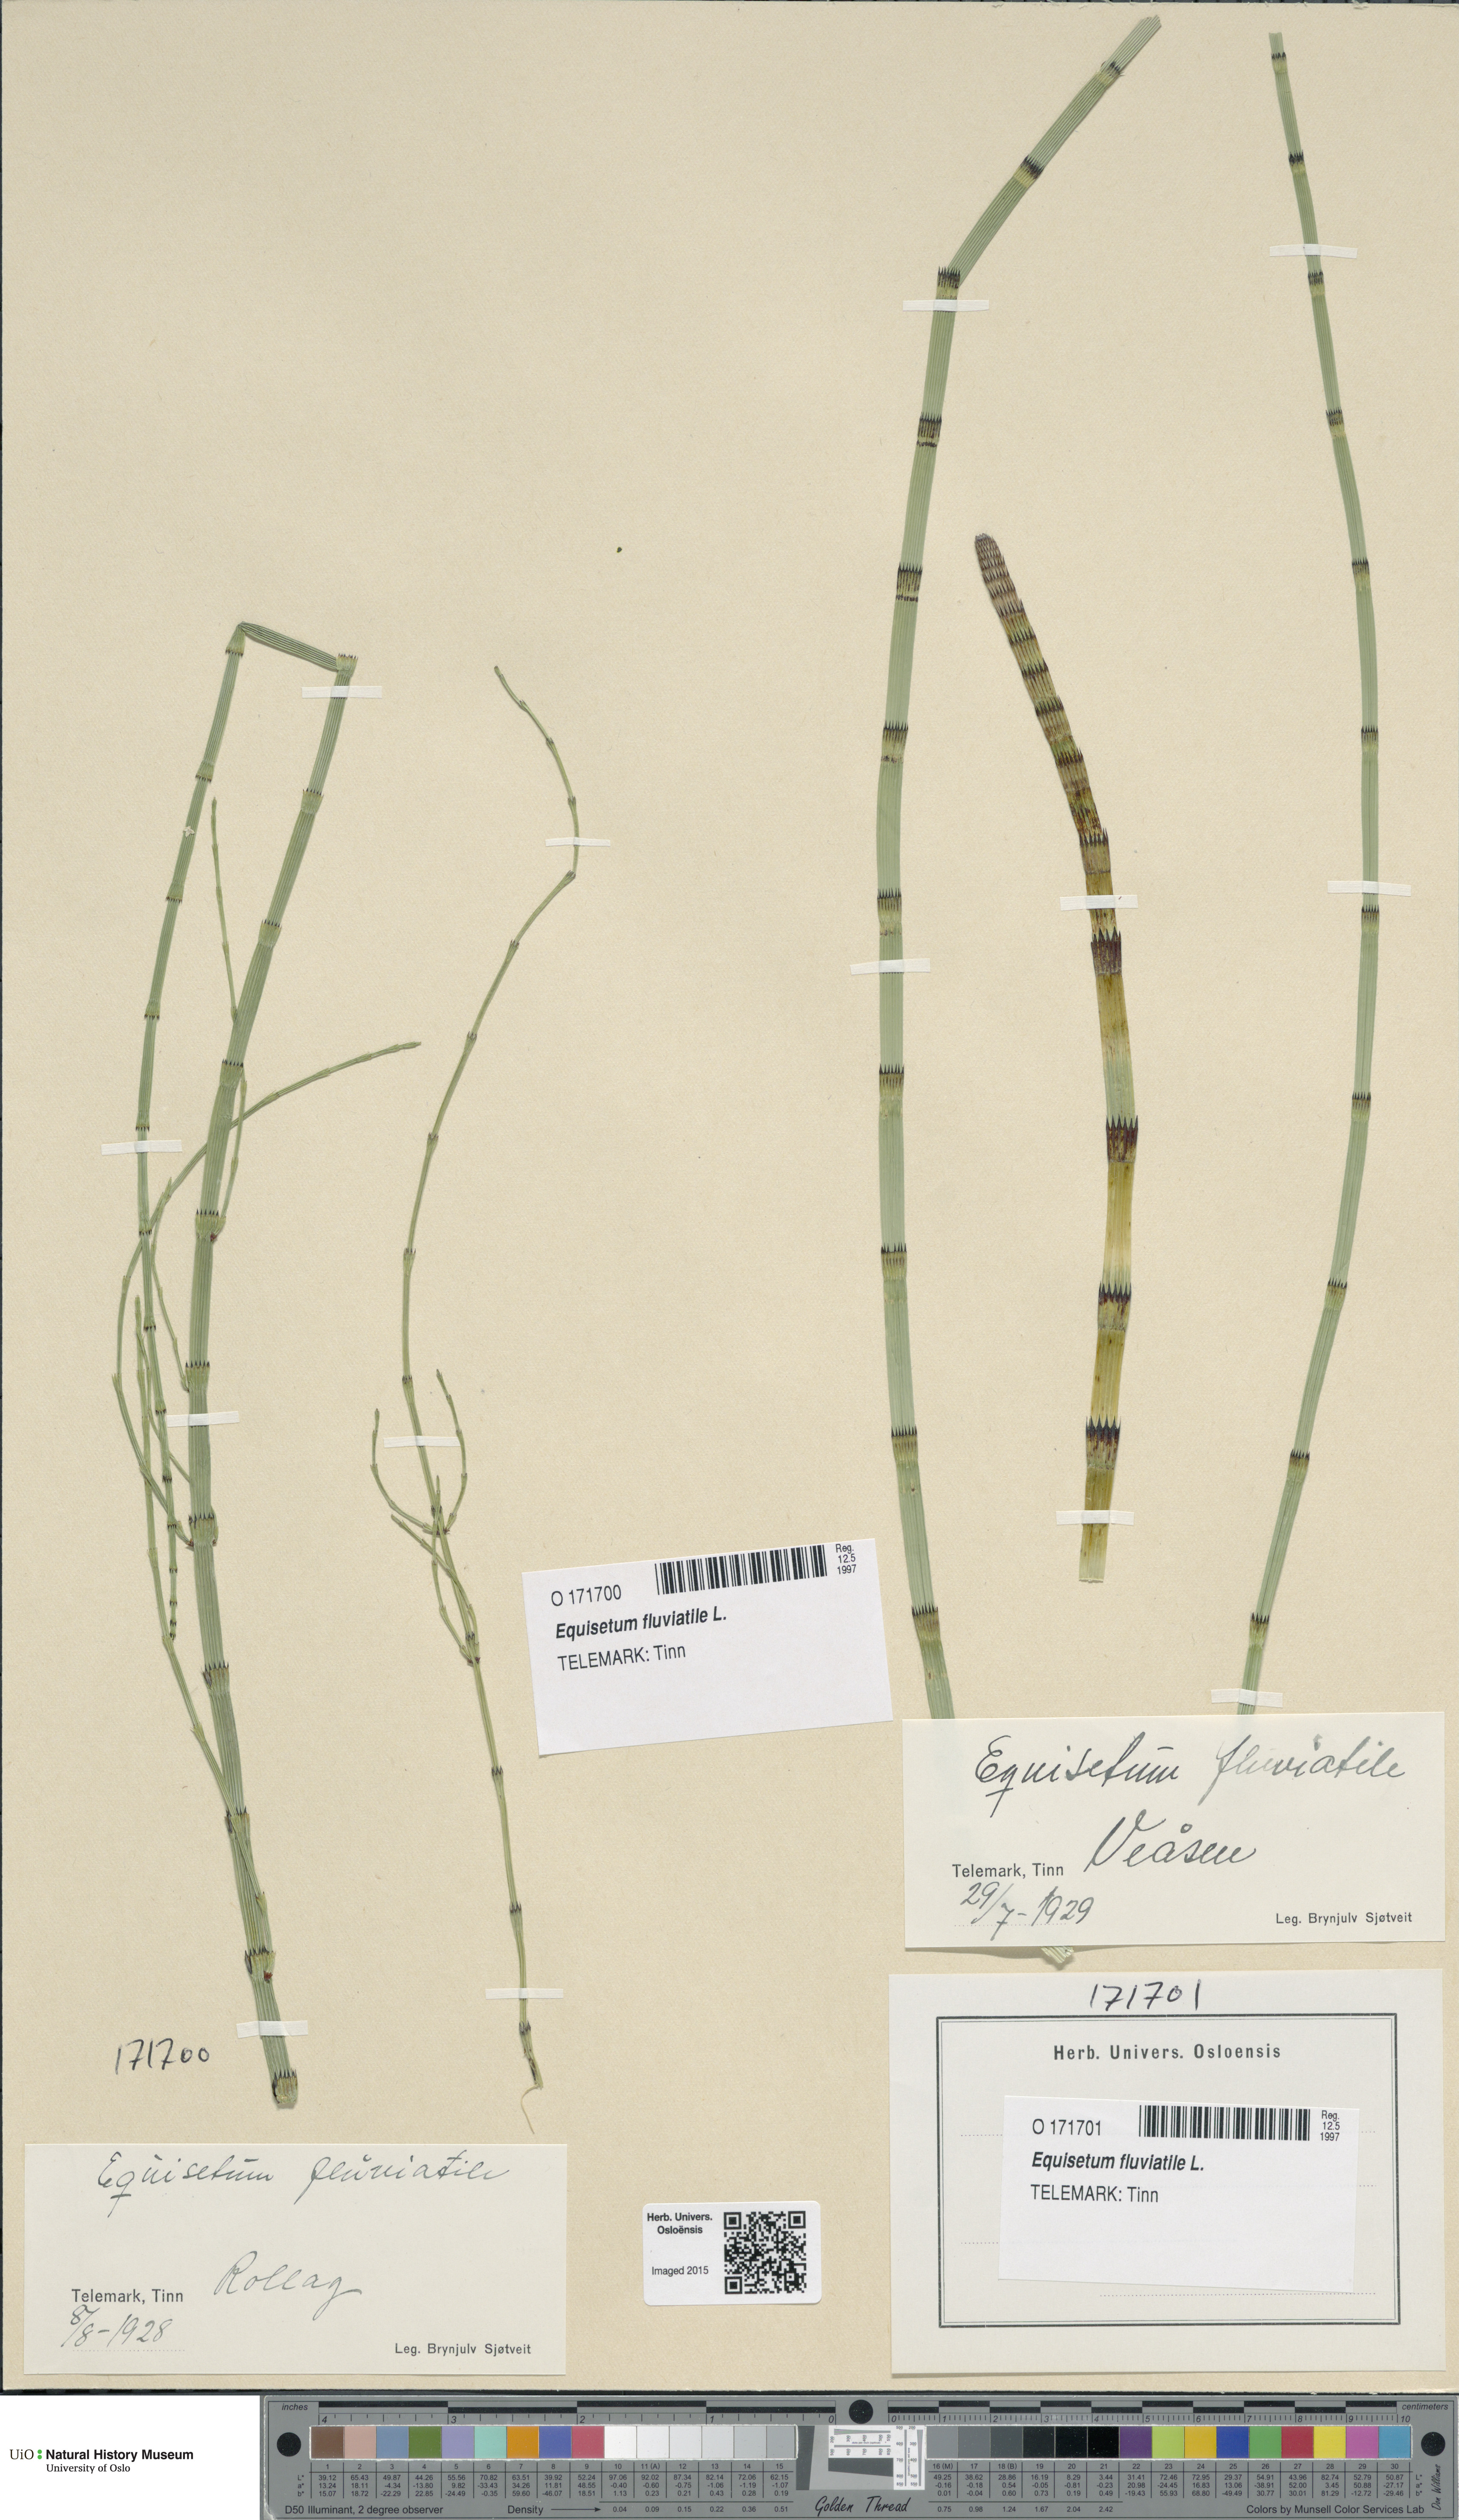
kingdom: Plantae
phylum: Tracheophyta
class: Polypodiopsida
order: Equisetales
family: Equisetaceae
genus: Equisetum
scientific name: Equisetum fluviatile
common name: Water horsetail
